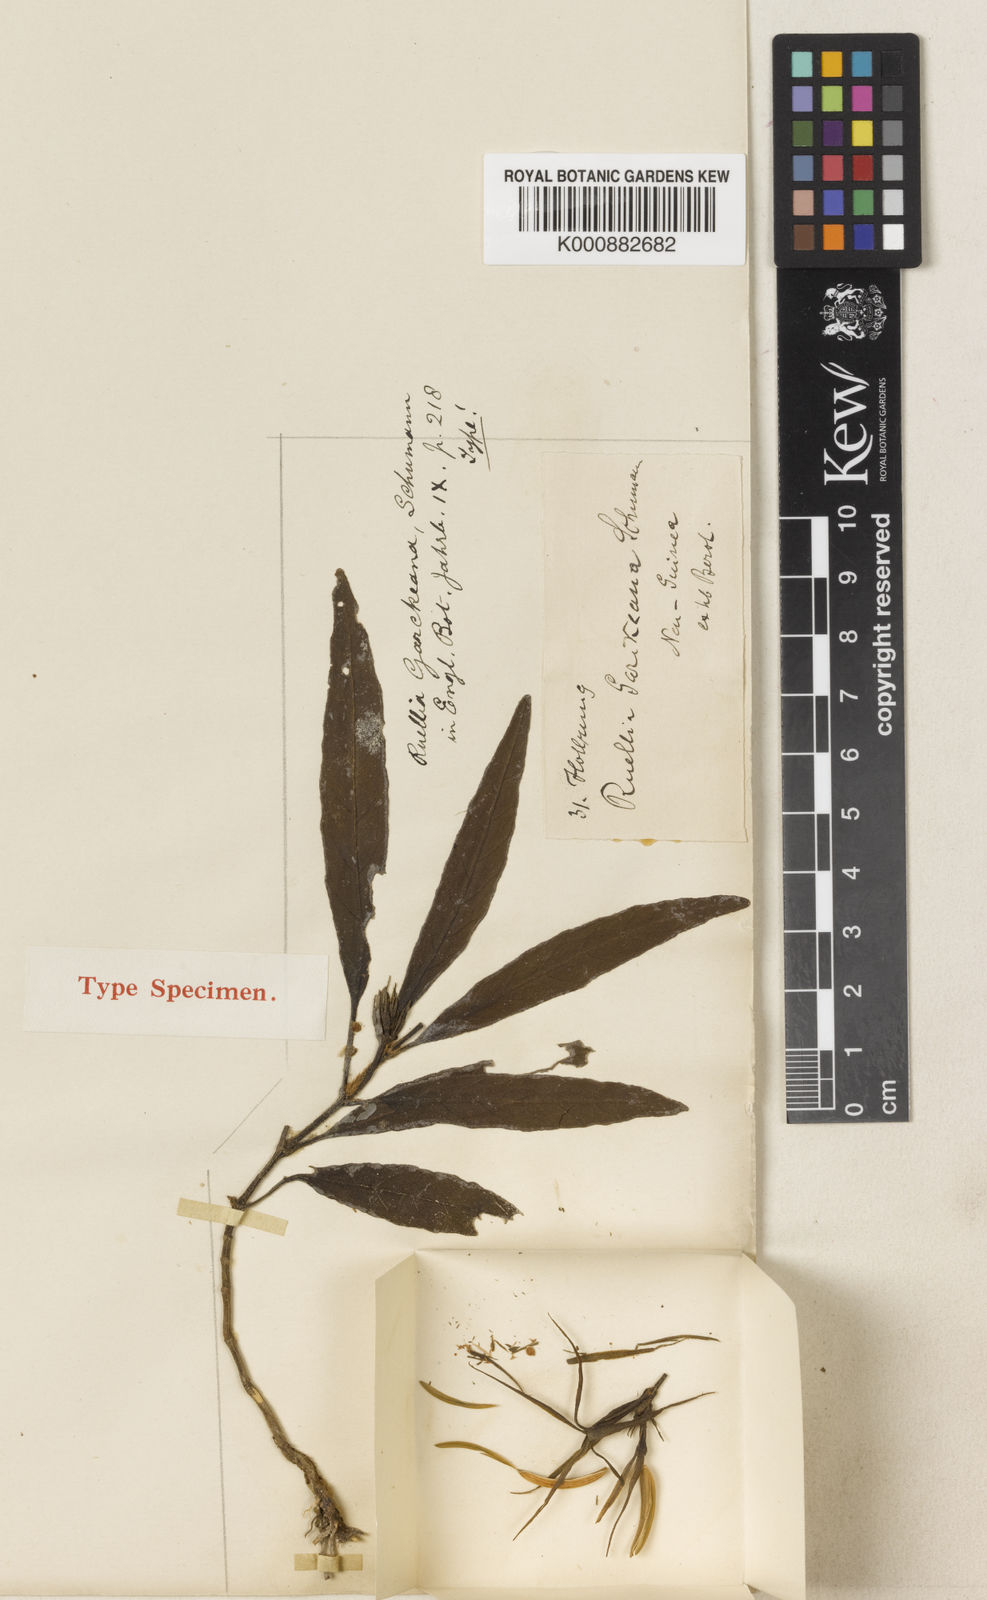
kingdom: Plantae
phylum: Tracheophyta
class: Magnoliopsida
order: Lamiales
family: Acanthaceae
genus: Leptosiphonium
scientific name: Leptosiphonium garckeanum
